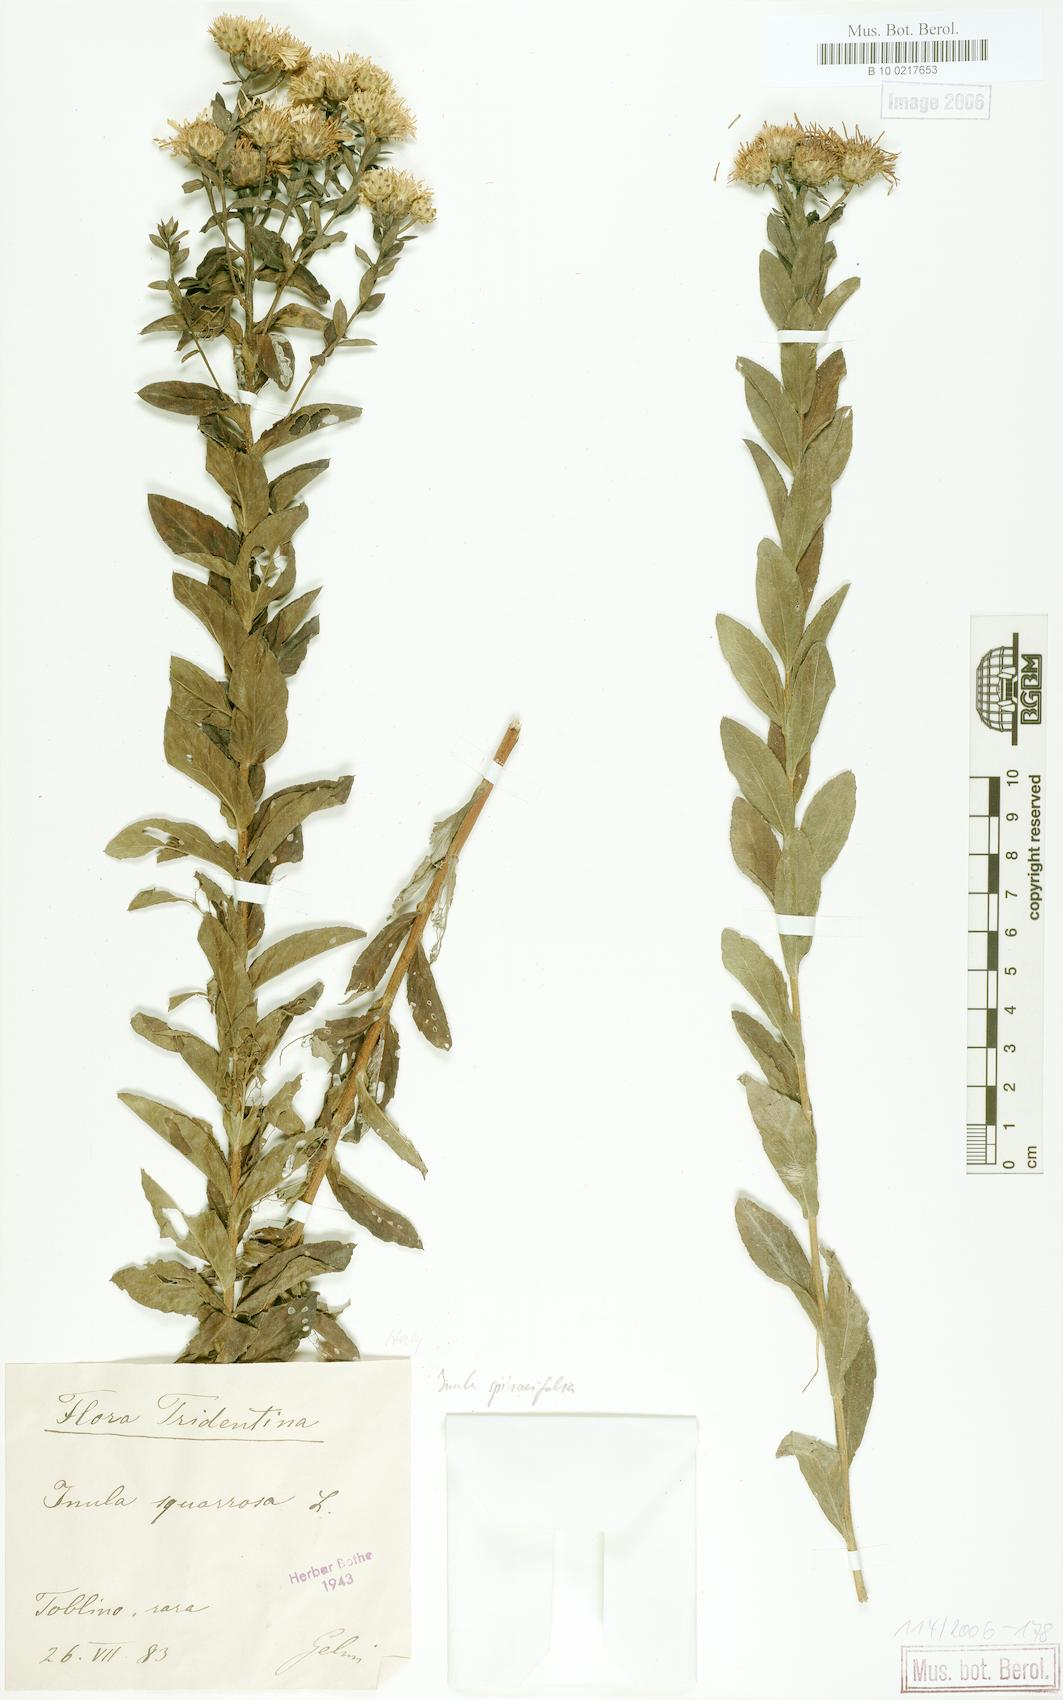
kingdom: Plantae
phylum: Tracheophyta
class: Magnoliopsida
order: Asterales
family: Asteraceae
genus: Pentanema
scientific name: Pentanema spiraeifolium
